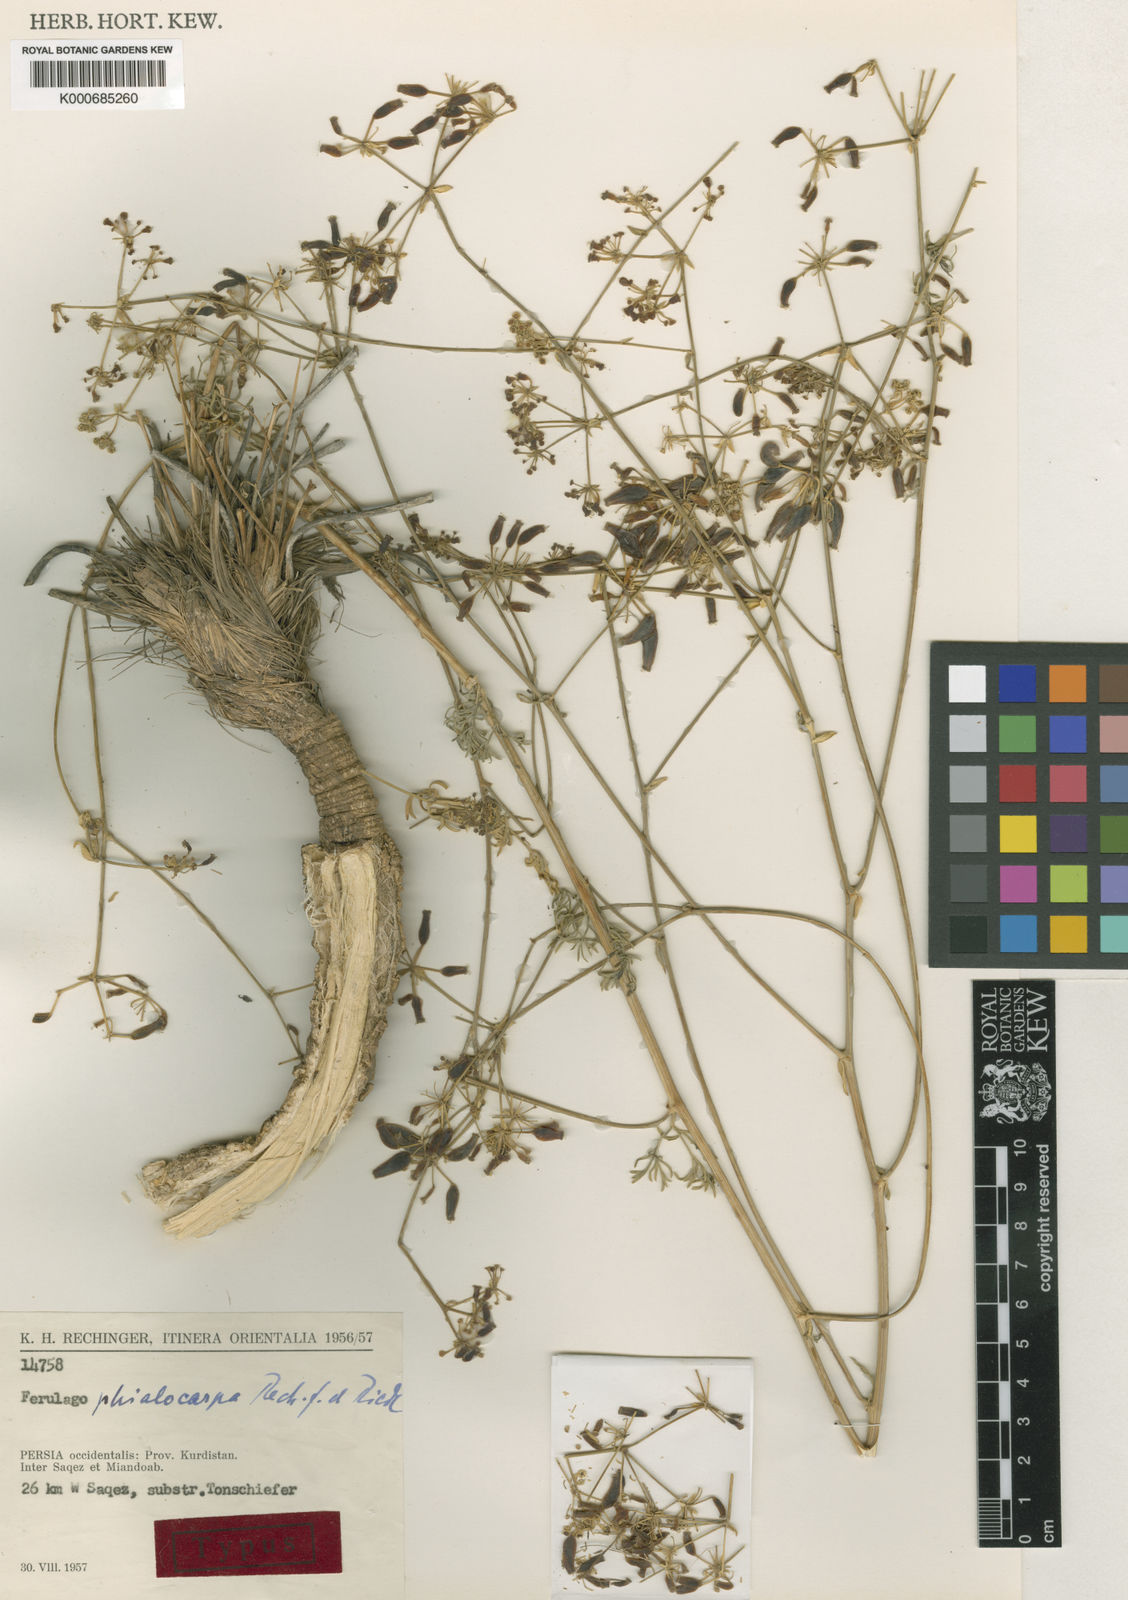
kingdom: Plantae
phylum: Tracheophyta
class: Magnoliopsida
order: Apiales
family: Apiaceae
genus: Ferulago
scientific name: Ferulago phialocarpa
